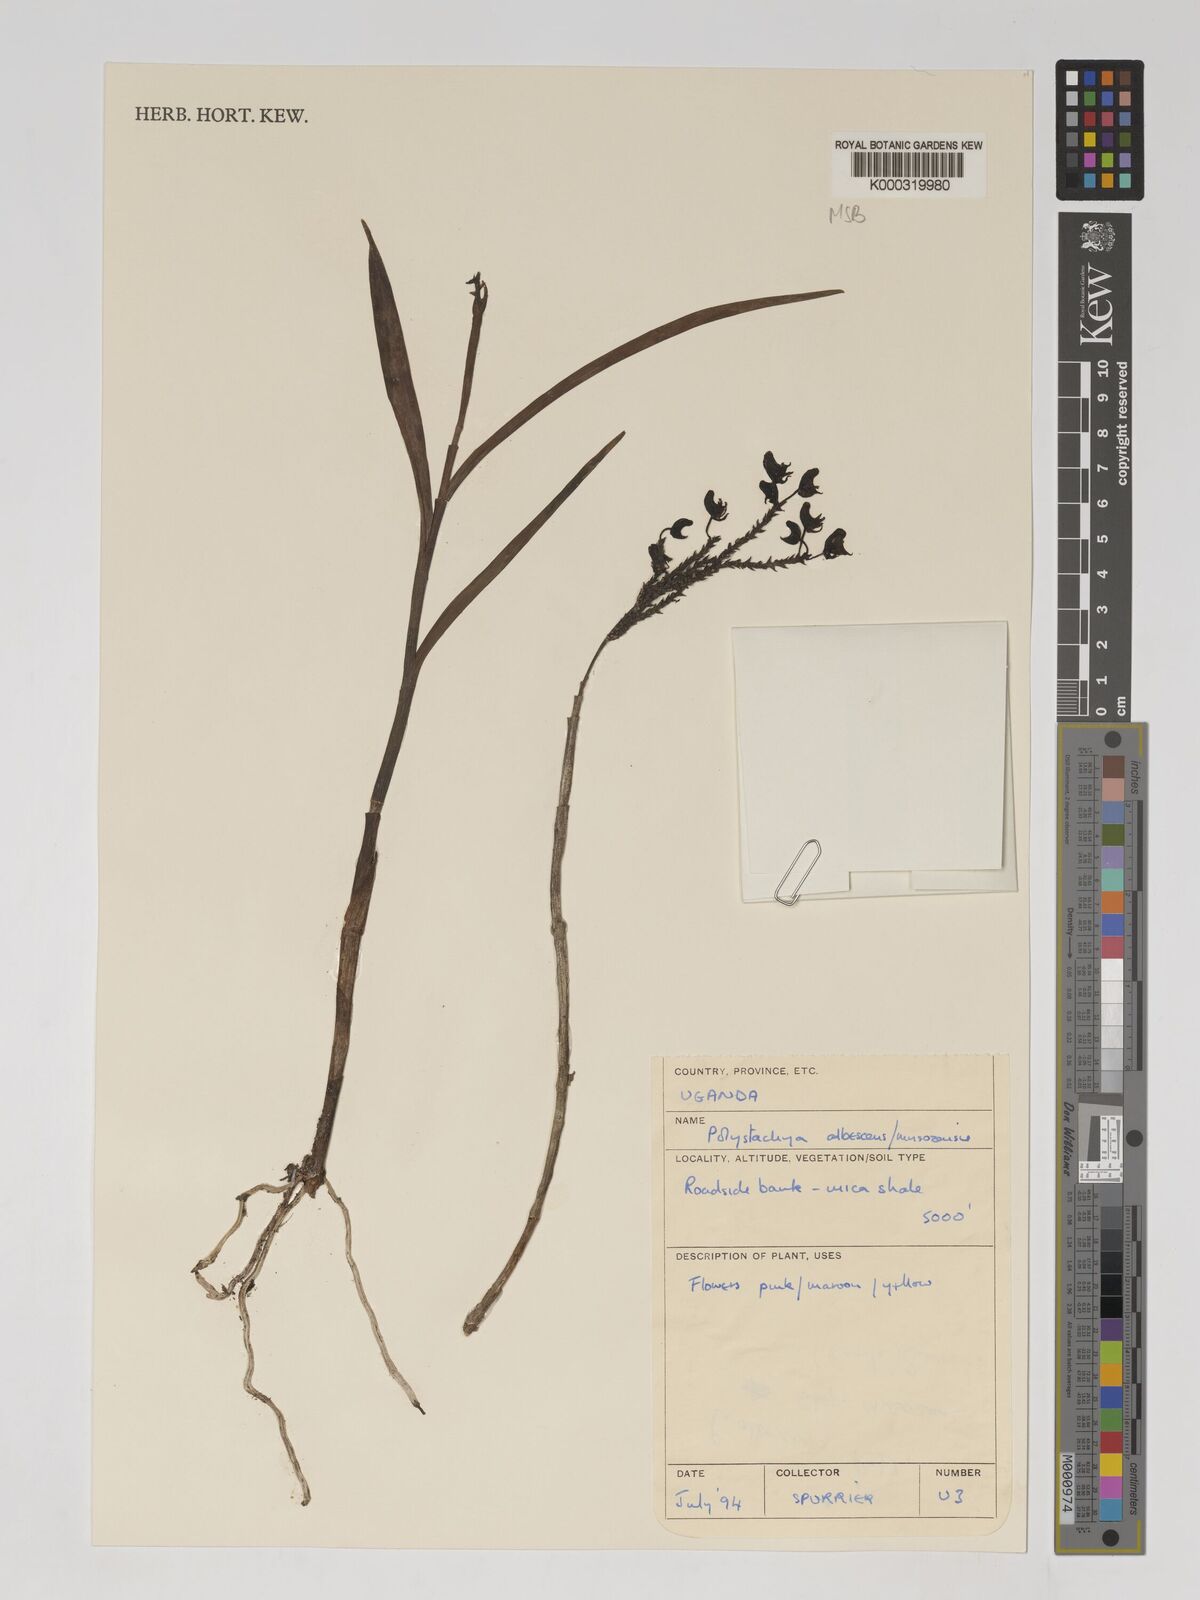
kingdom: Plantae
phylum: Tracheophyta
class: Liliopsida
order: Asparagales
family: Orchidaceae
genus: Polystachya
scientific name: Polystachya albescens
